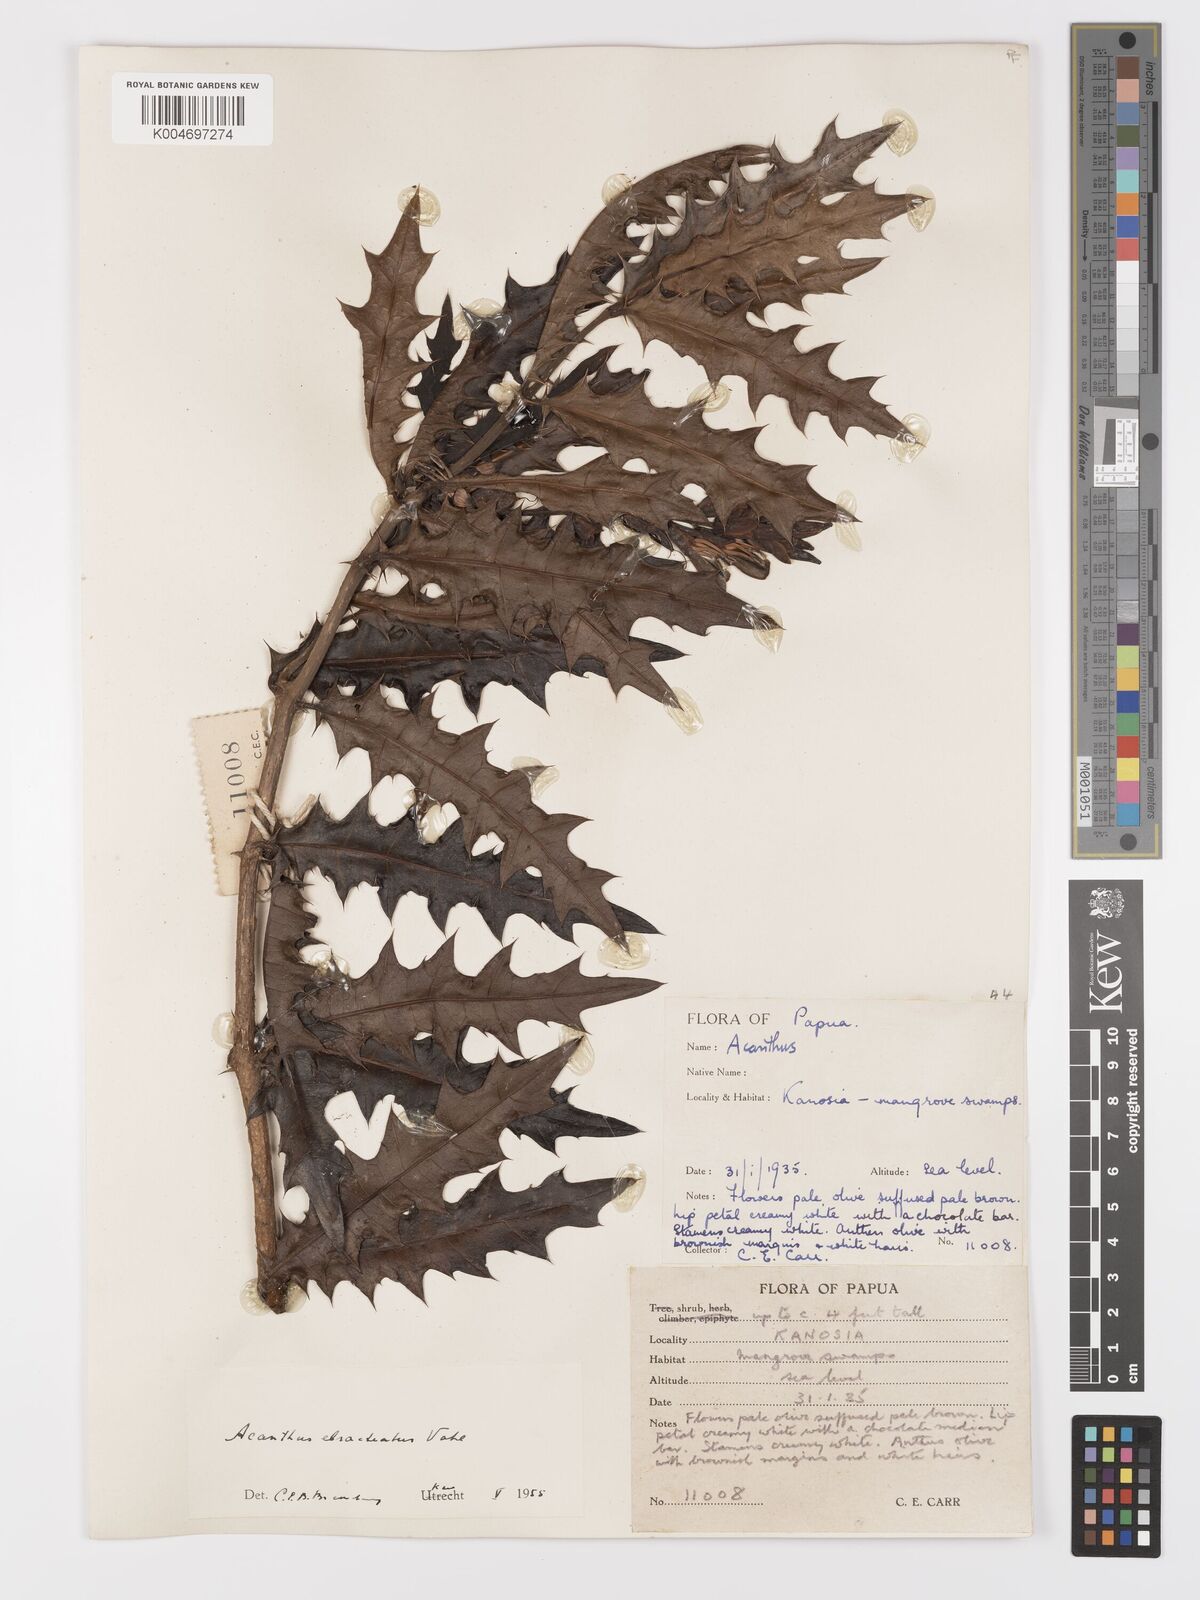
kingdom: Plantae
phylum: Tracheophyta
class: Magnoliopsida
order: Lamiales
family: Acanthaceae
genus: Acanthus
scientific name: Acanthus ebracteatus
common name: Acanthus
